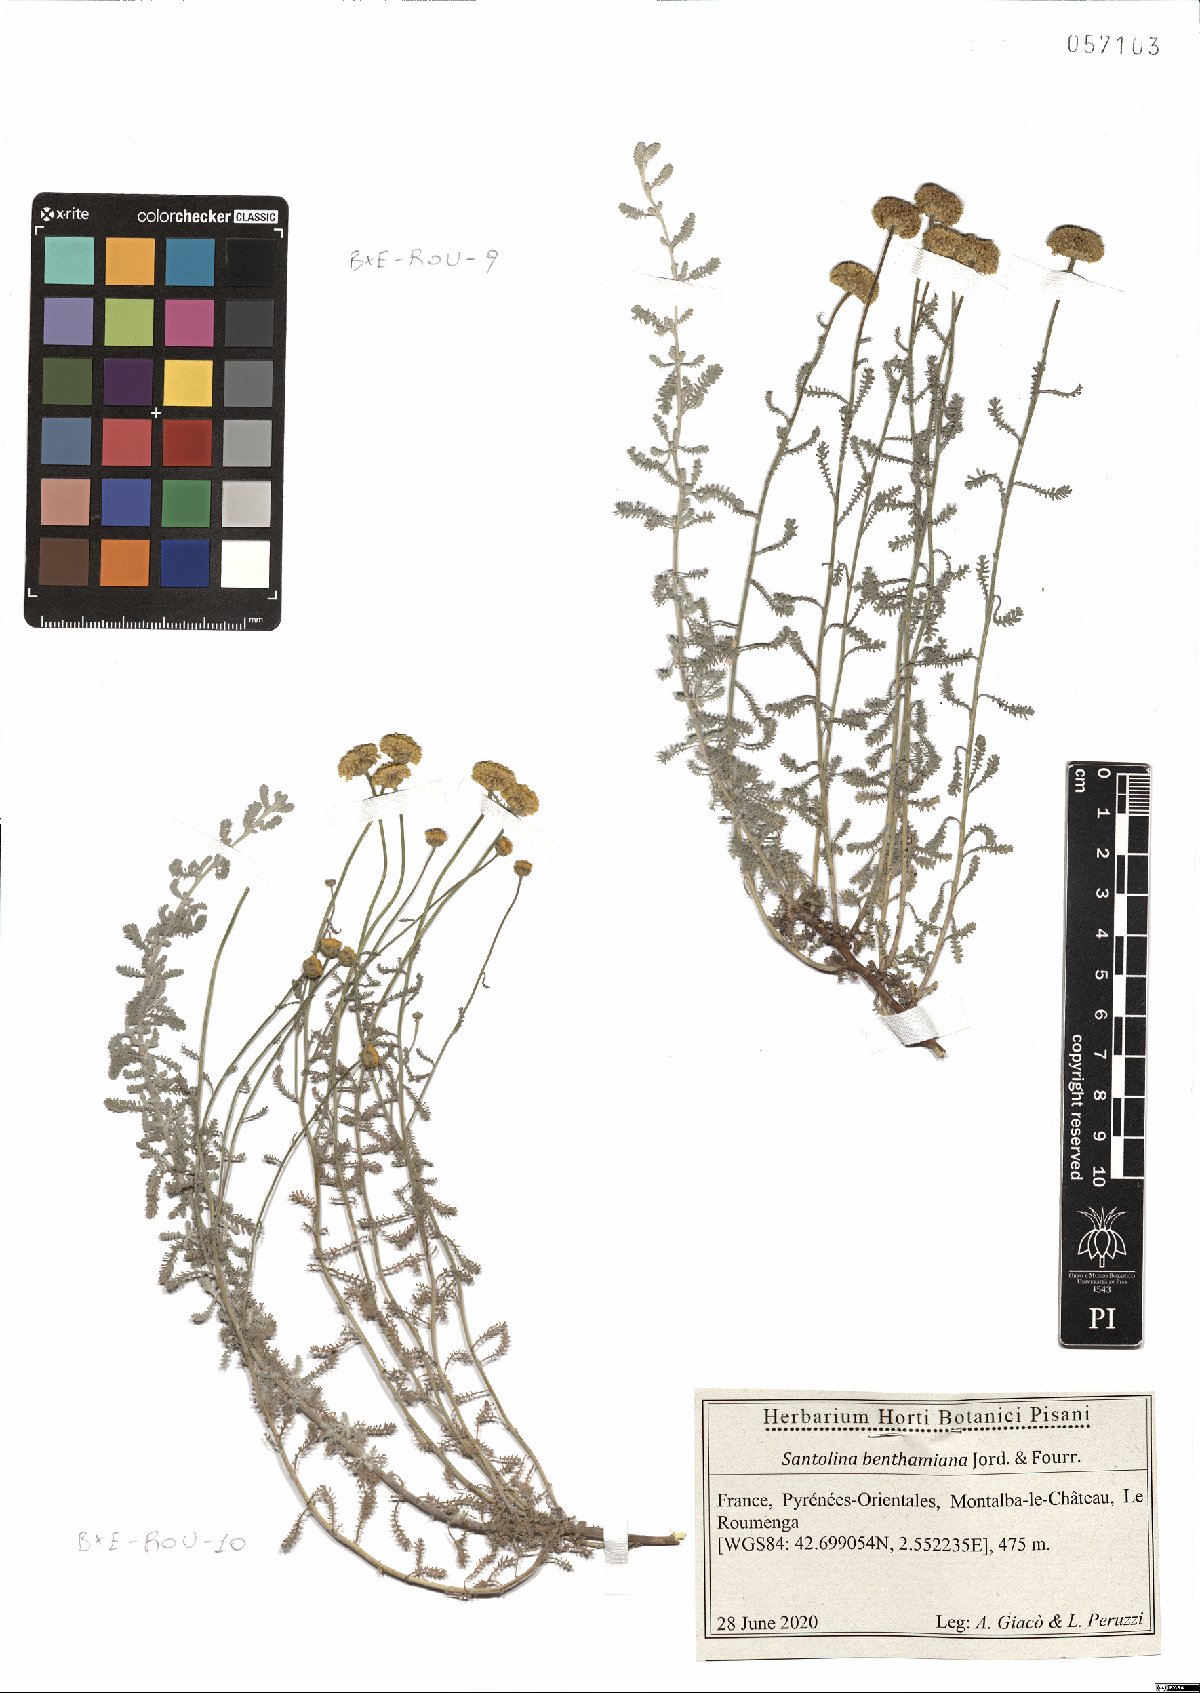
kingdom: Plantae
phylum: Tracheophyta
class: Magnoliopsida
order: Asterales
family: Asteraceae
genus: Santolina
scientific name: Santolina benthamiana
